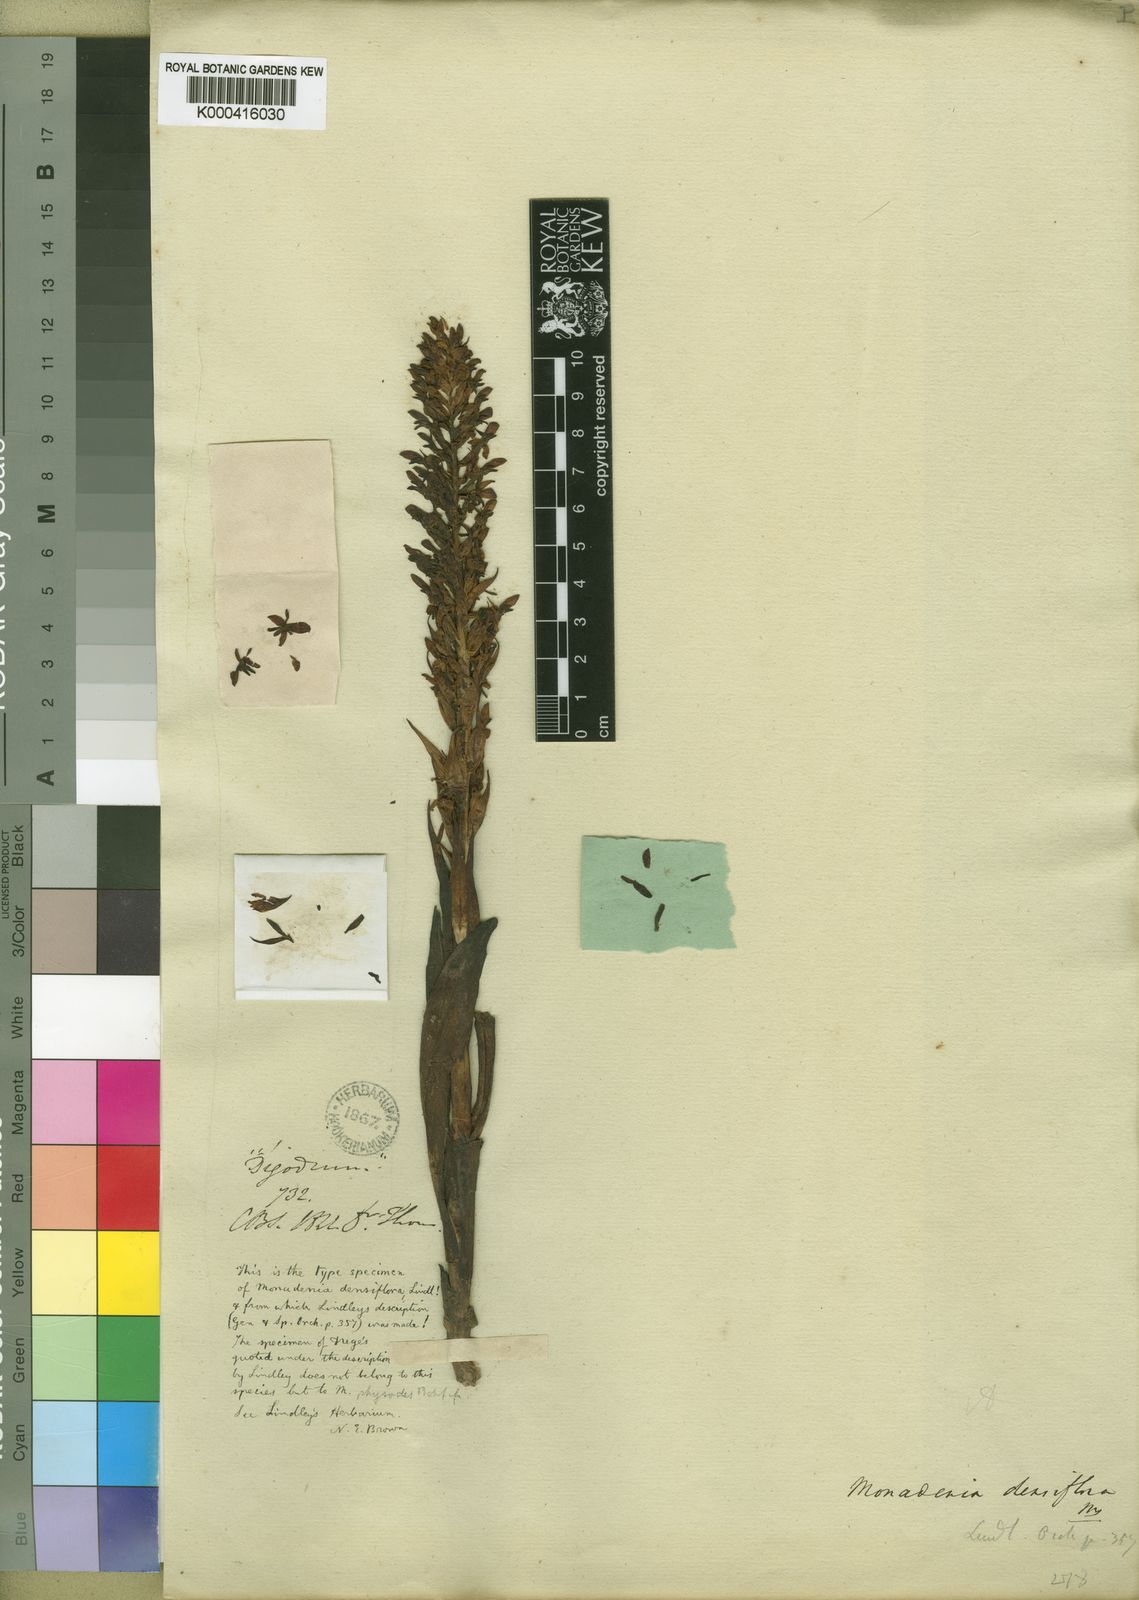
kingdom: Plantae
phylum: Tracheophyta
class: Liliopsida
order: Asparagales
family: Orchidaceae
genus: Disa
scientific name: Disa densiflora
